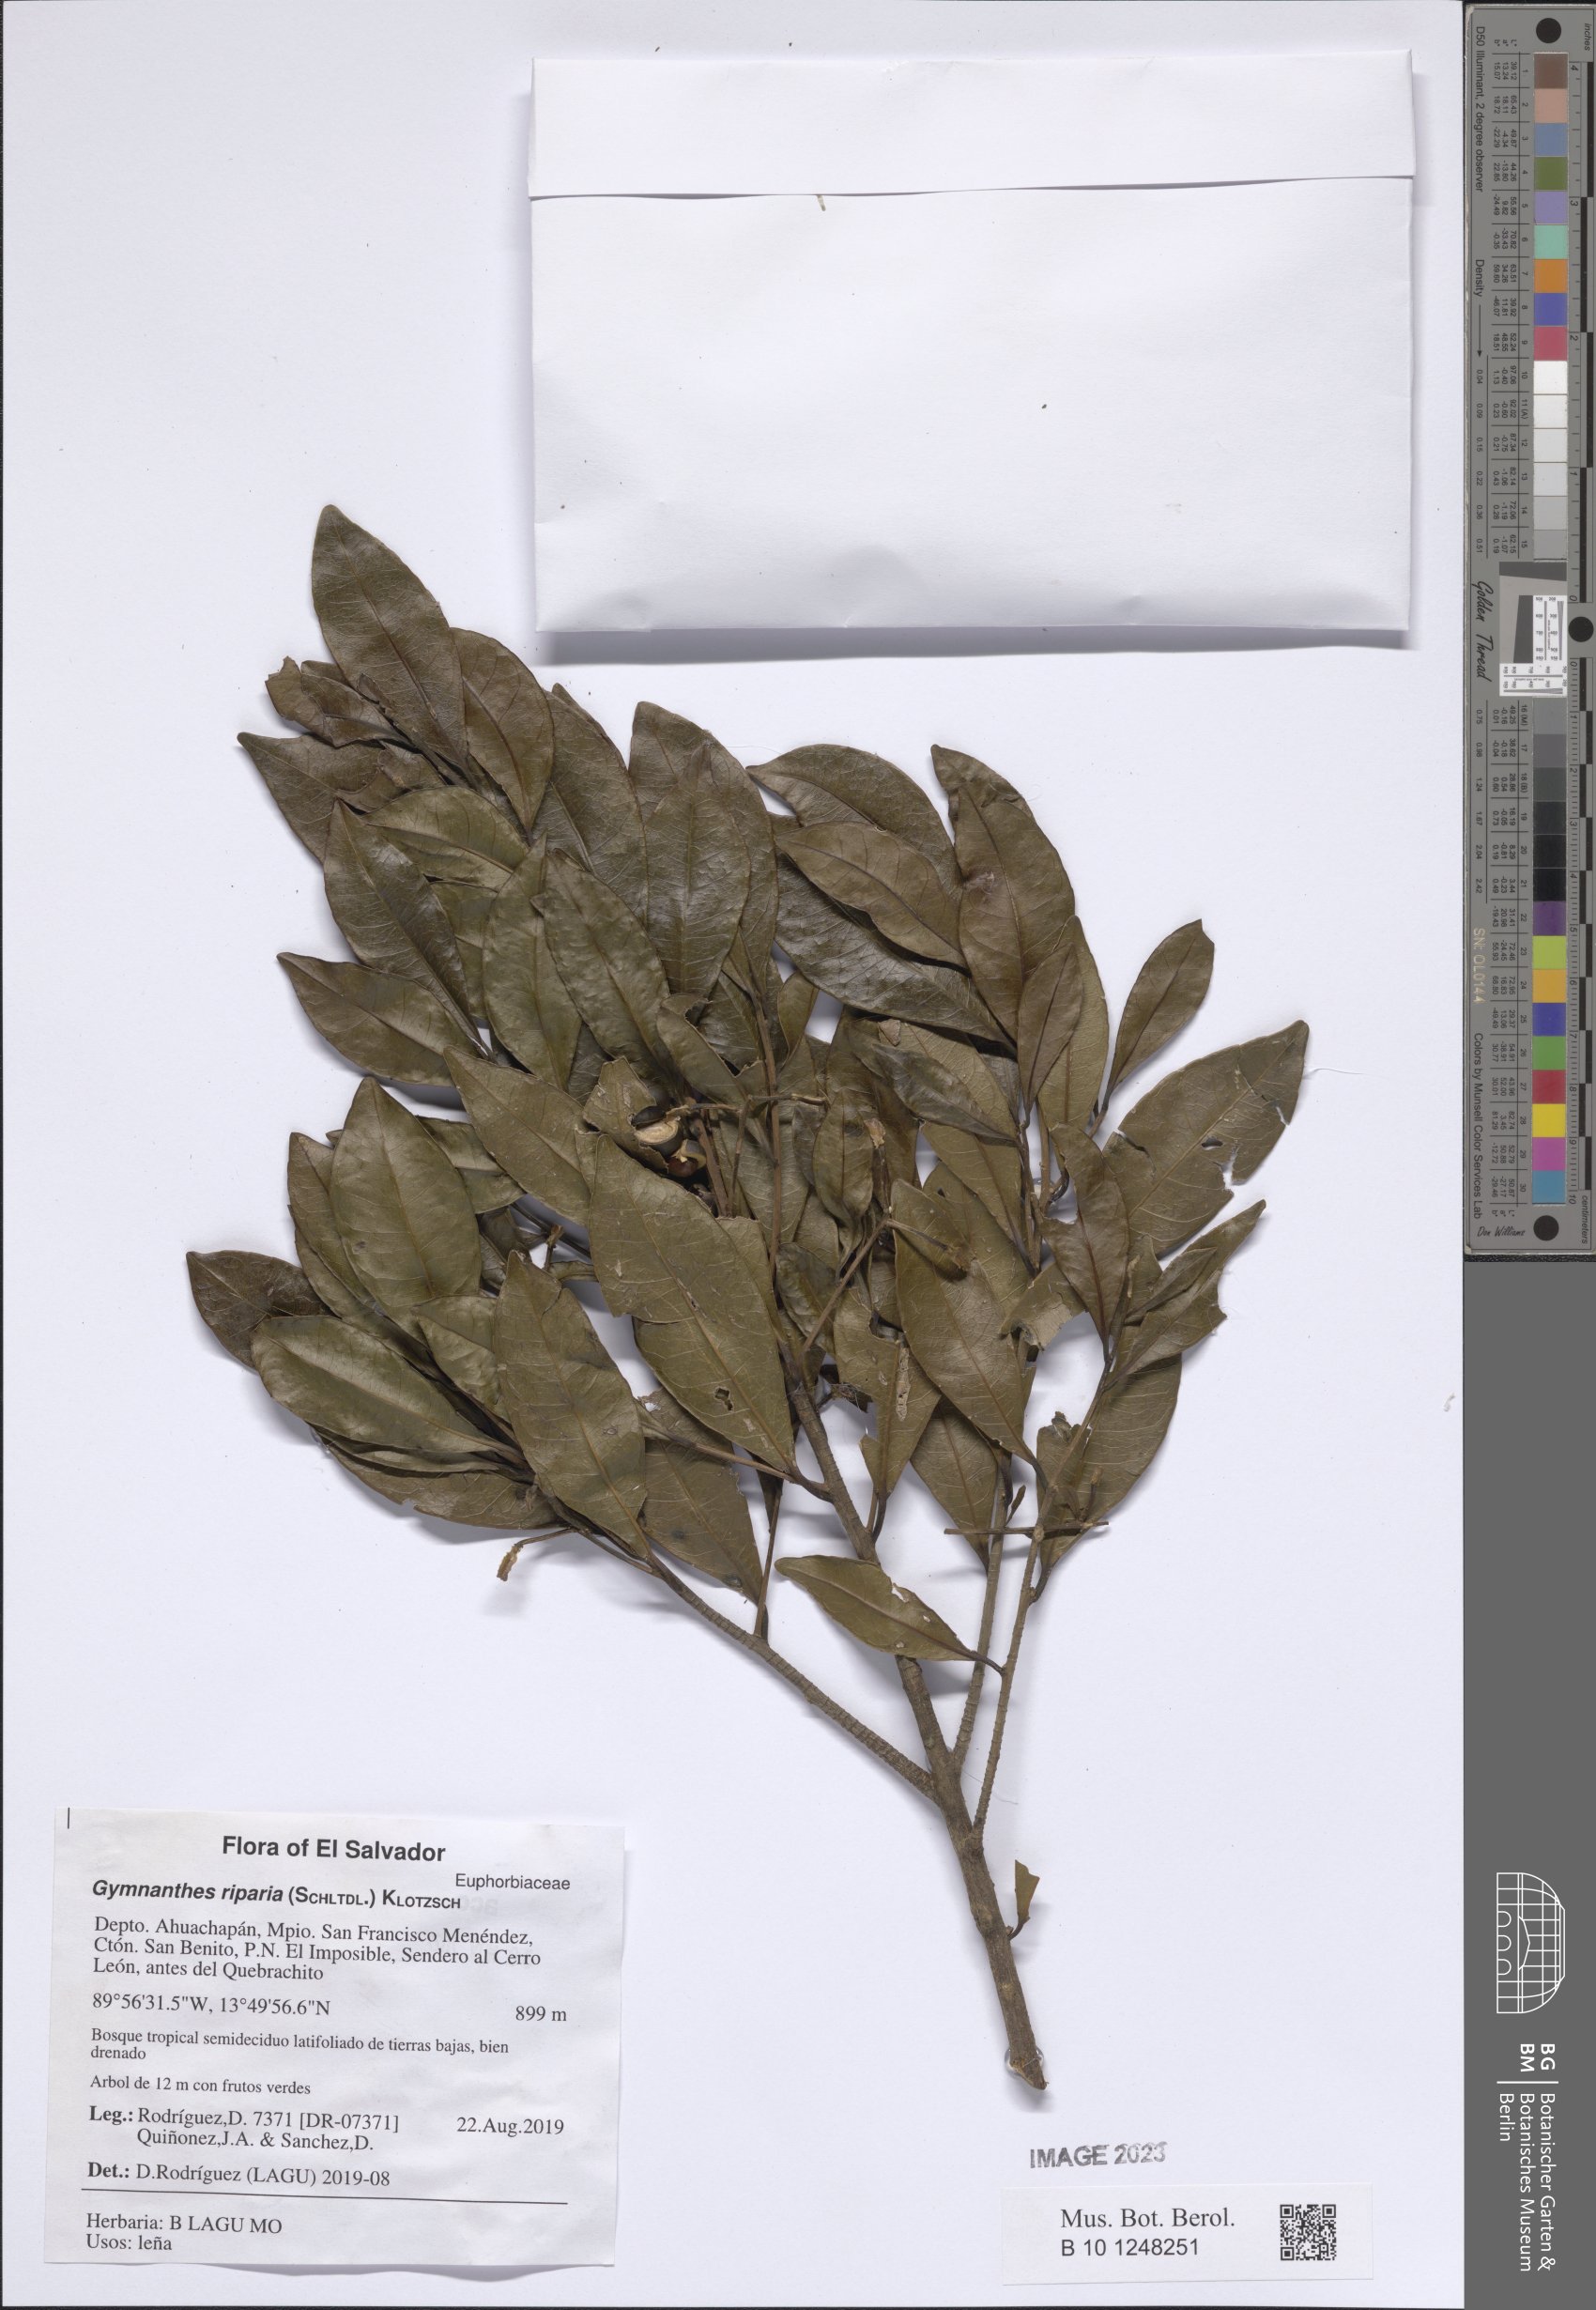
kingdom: Plantae
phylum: Tracheophyta
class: Magnoliopsida
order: Malpighiales
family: Euphorbiaceae
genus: Gymnanthes
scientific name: Gymnanthes riparia
